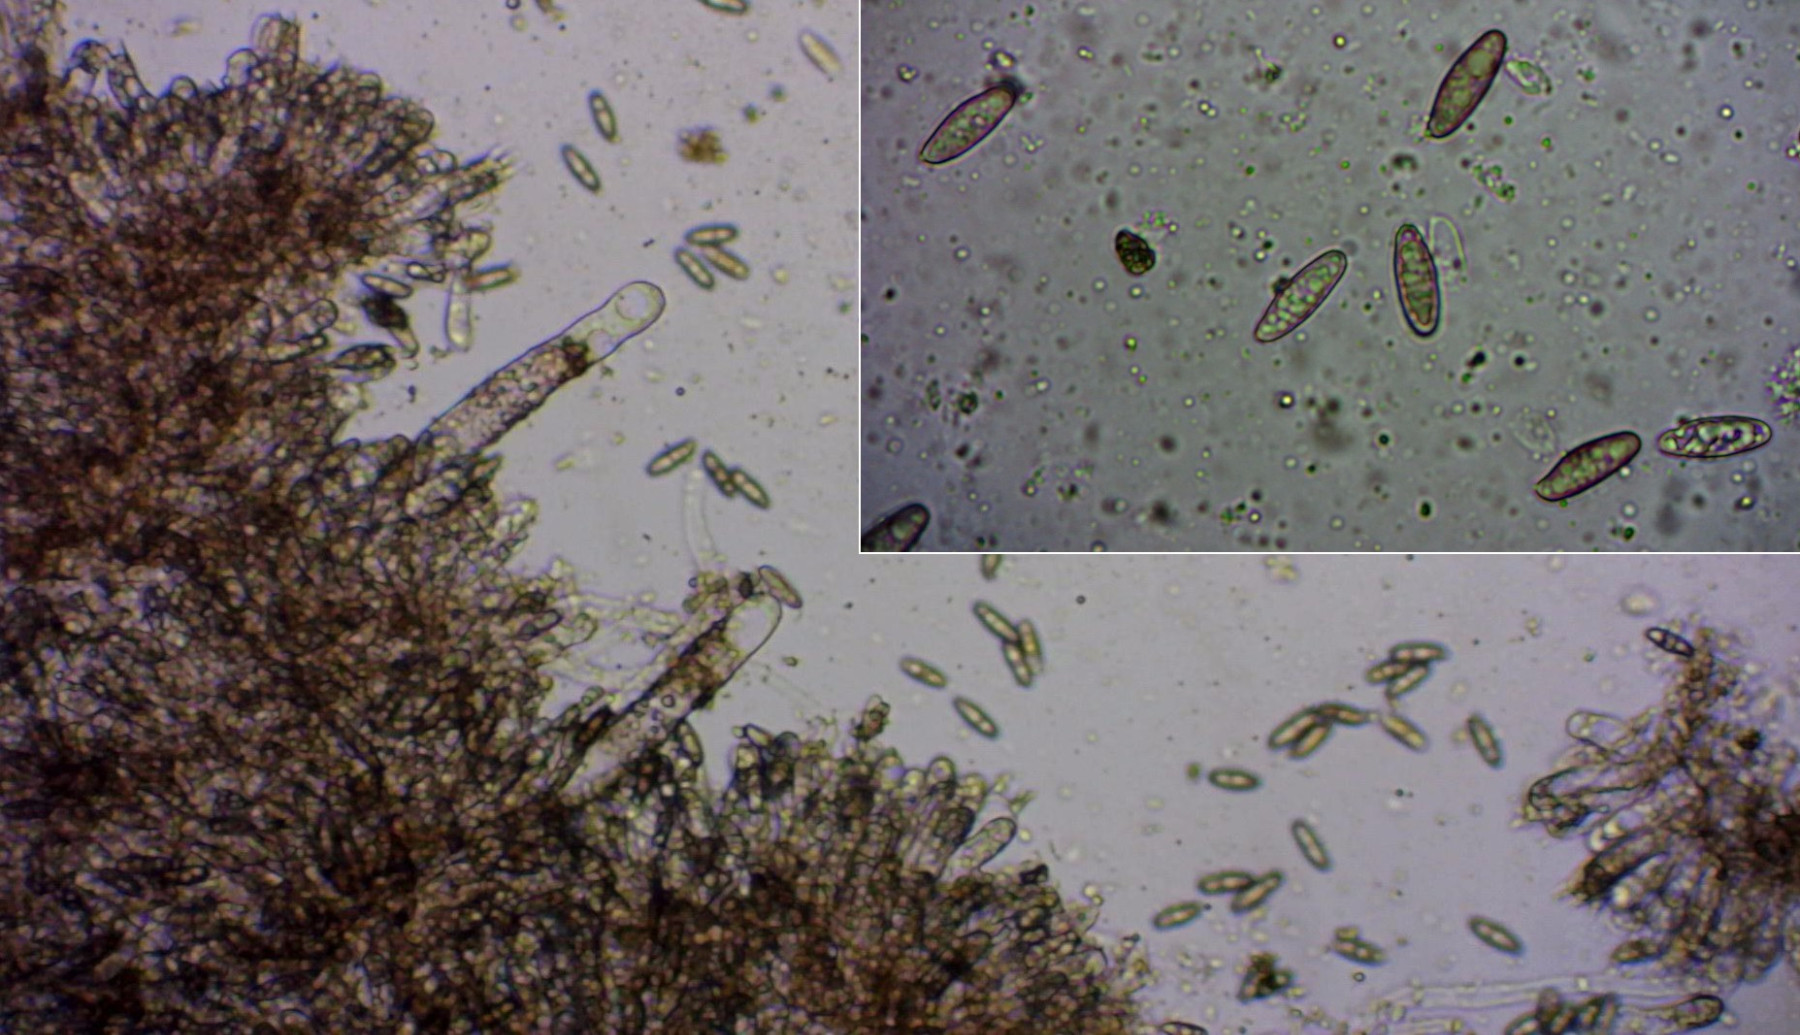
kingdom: Fungi
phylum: Basidiomycota
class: Agaricomycetes
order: Boletales
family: Gomphidiaceae
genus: Chroogomphus
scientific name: Chroogomphus rutilus
